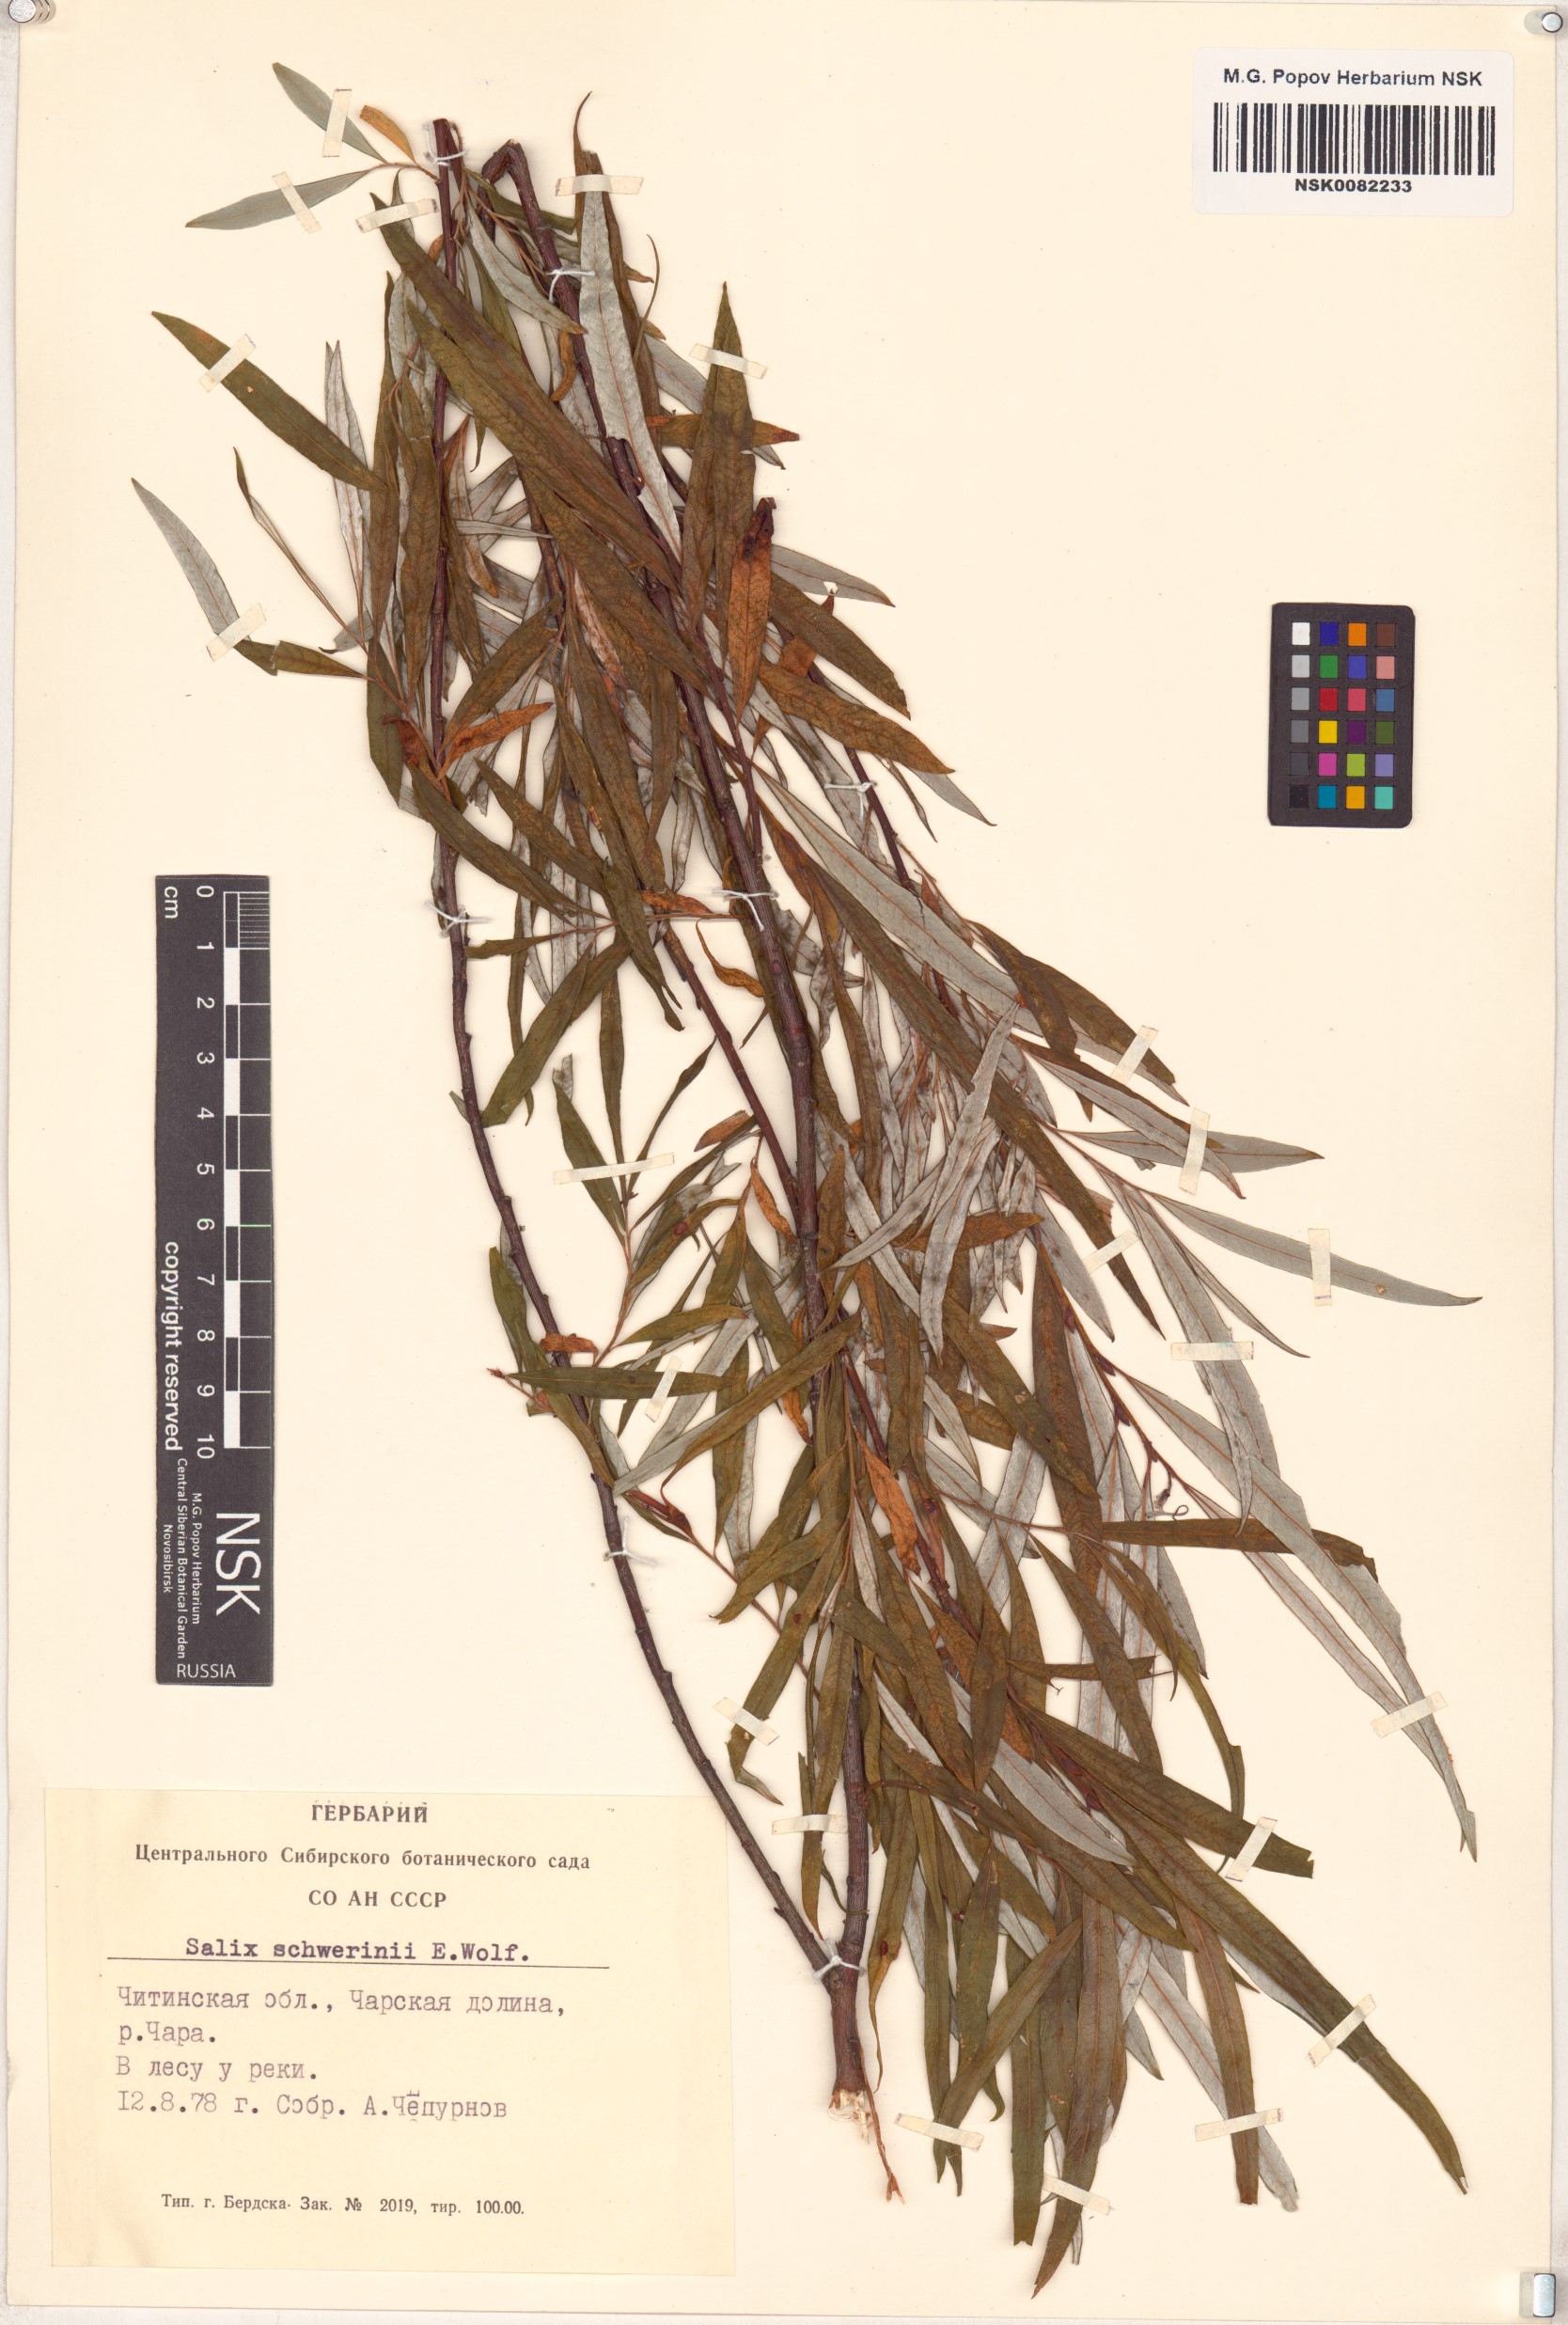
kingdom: Plantae
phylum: Tracheophyta
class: Magnoliopsida
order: Malpighiales
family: Salicaceae
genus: Salix
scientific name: Salix schwerinii
